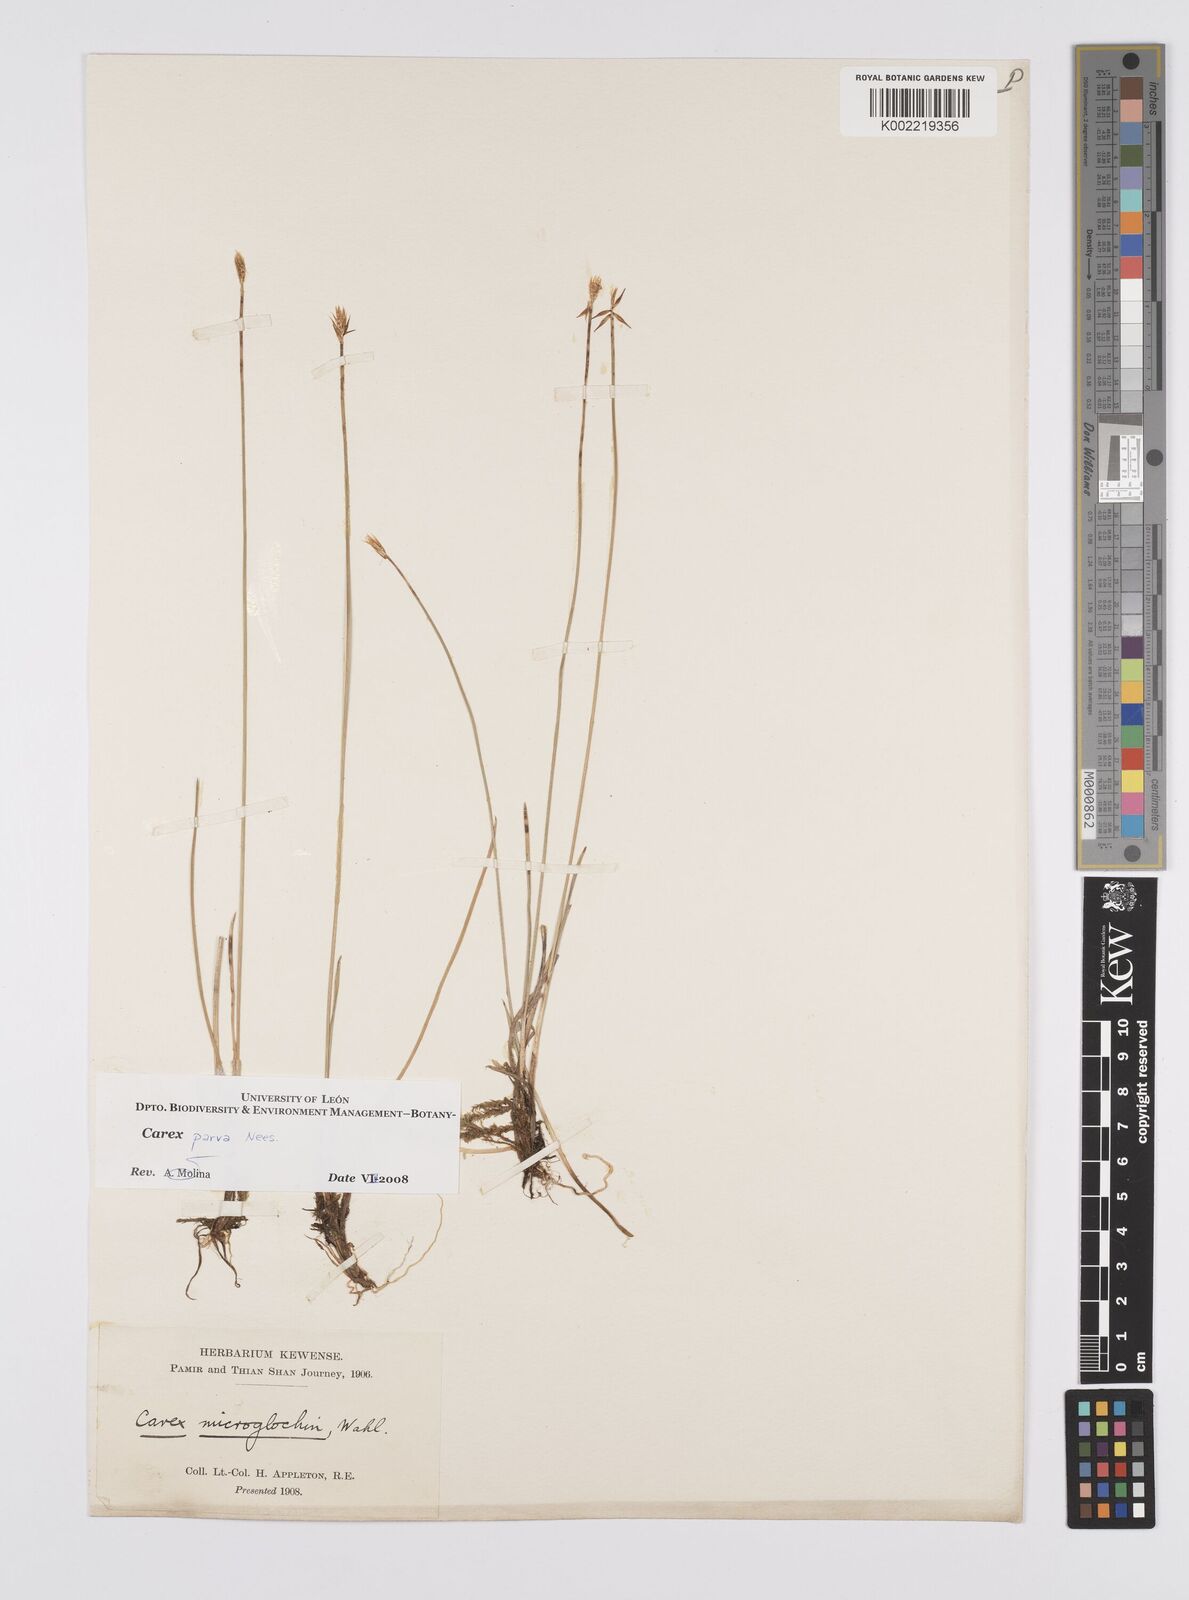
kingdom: Plantae
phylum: Tracheophyta
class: Liliopsida
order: Poales
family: Cyperaceae
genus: Carex
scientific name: Carex parva
